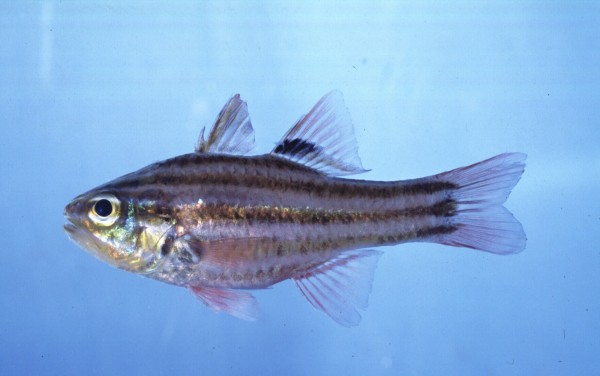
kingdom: Animalia
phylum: Chordata
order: Perciformes
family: Apogonidae
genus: Ostorhinchus
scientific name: Ostorhinchus taeniophorus
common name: Reef-flat cardinalfish
